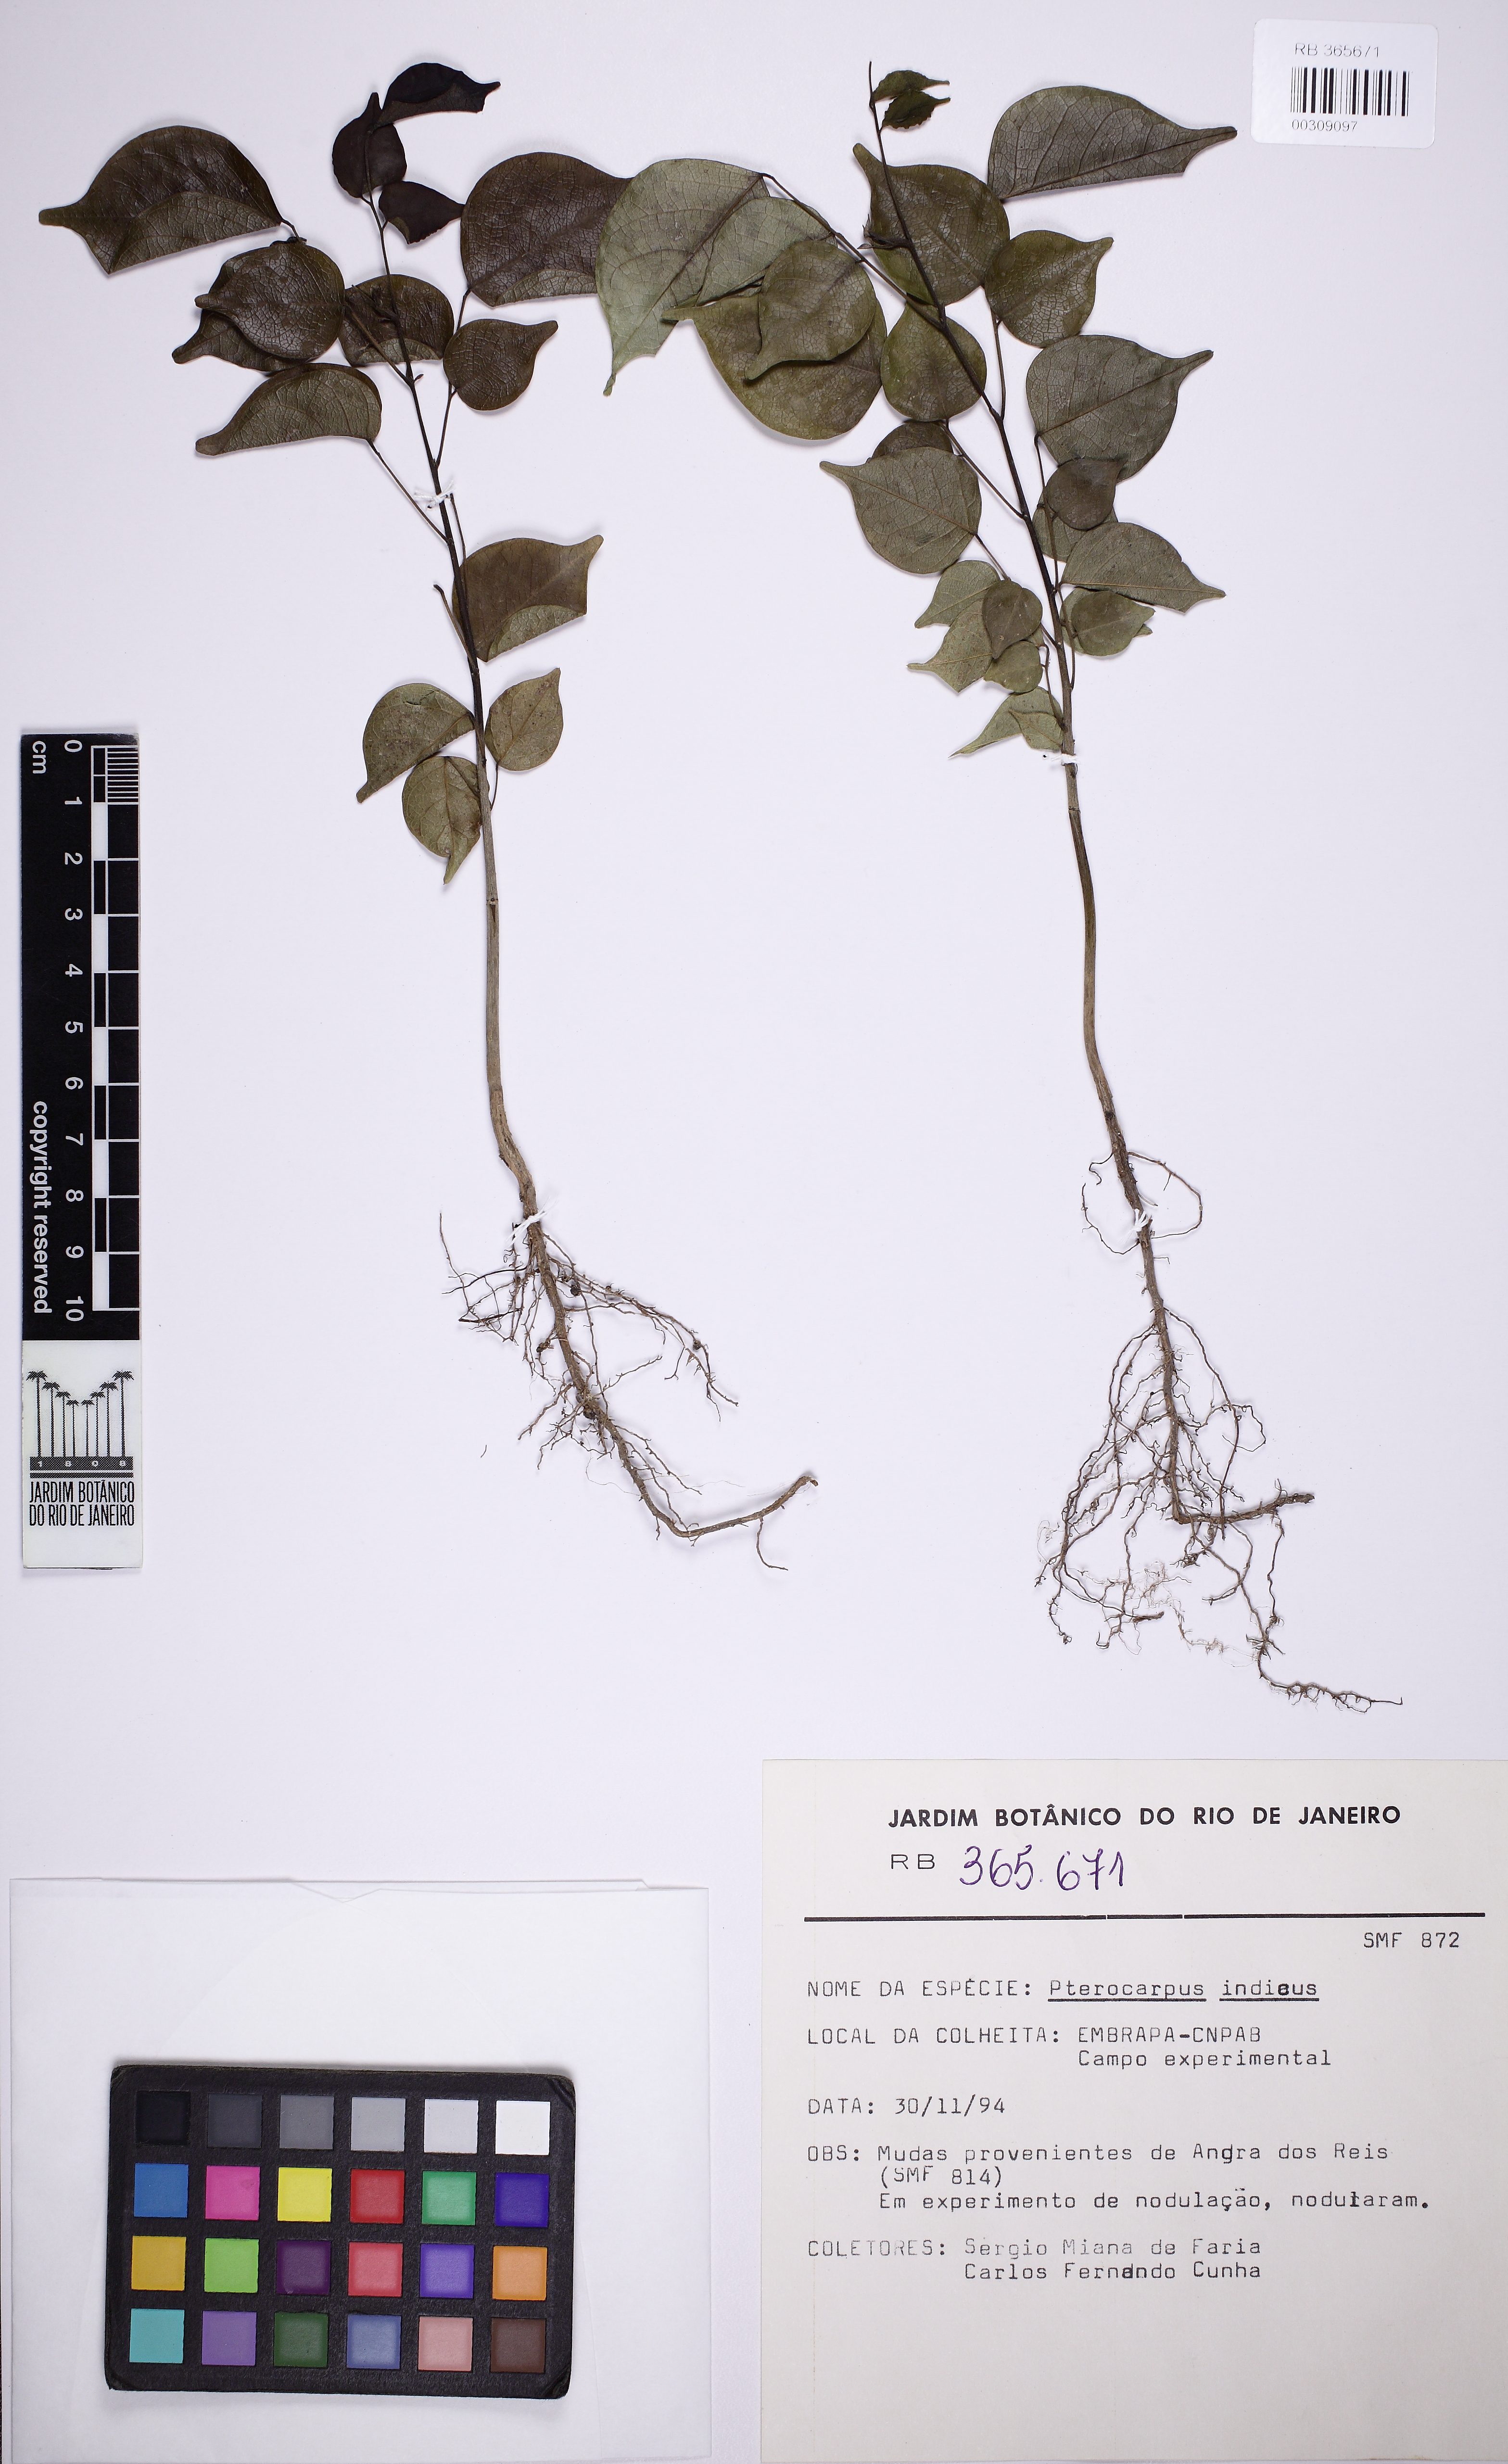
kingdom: Plantae
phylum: Tracheophyta
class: Magnoliopsida
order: Fabales
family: Fabaceae
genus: Pterocarpus
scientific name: Pterocarpus indicus
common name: Burmese rosewood
